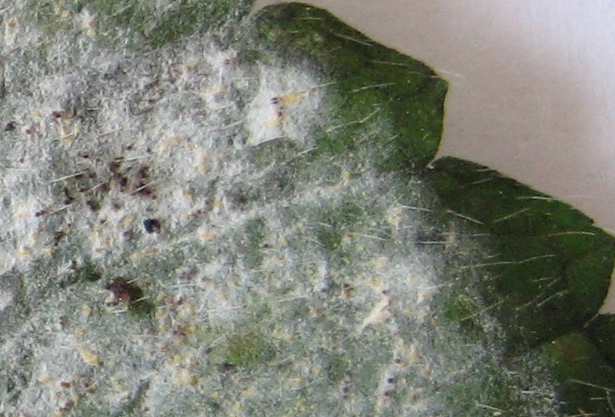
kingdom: Fungi
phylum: Ascomycota
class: Leotiomycetes
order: Helotiales
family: Erysiphaceae
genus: Neoerysiphe
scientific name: Neoerysiphe galeopsidis
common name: Mint mildew
